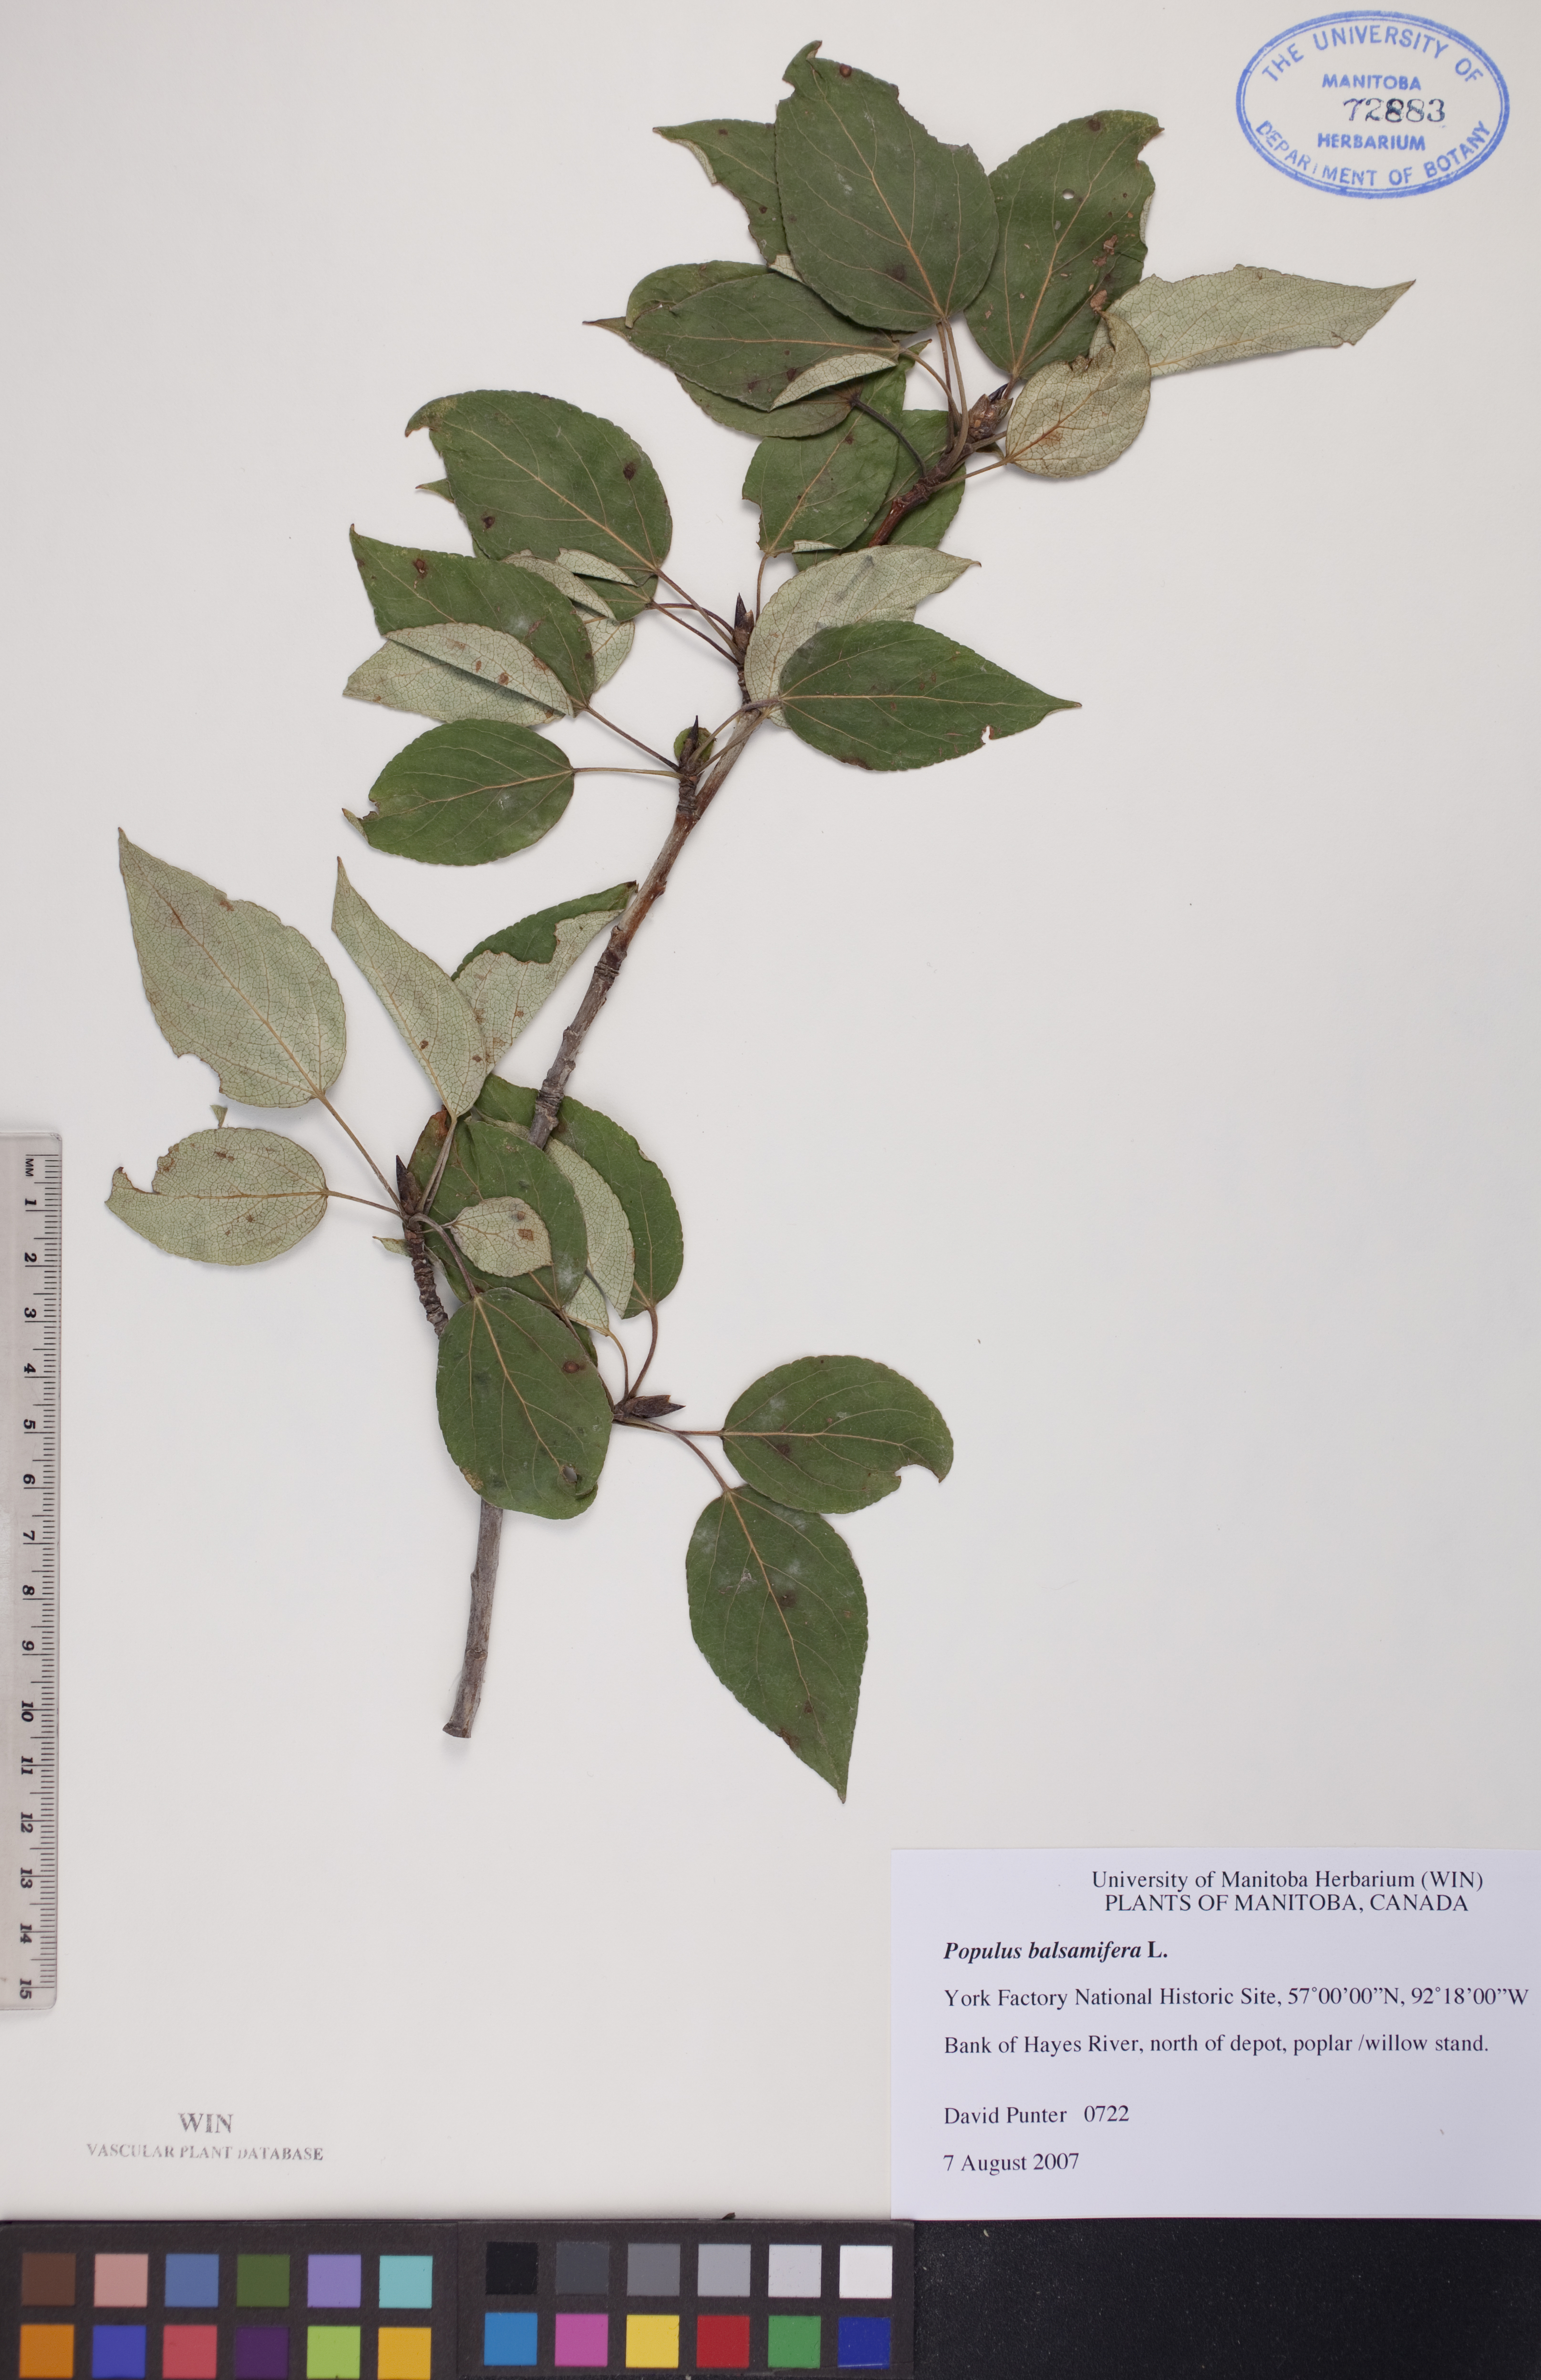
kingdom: Plantae
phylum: Tracheophyta
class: Magnoliopsida
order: Malpighiales
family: Salicaceae
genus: Populus
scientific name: Populus balsamifera
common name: Balsam poplar
